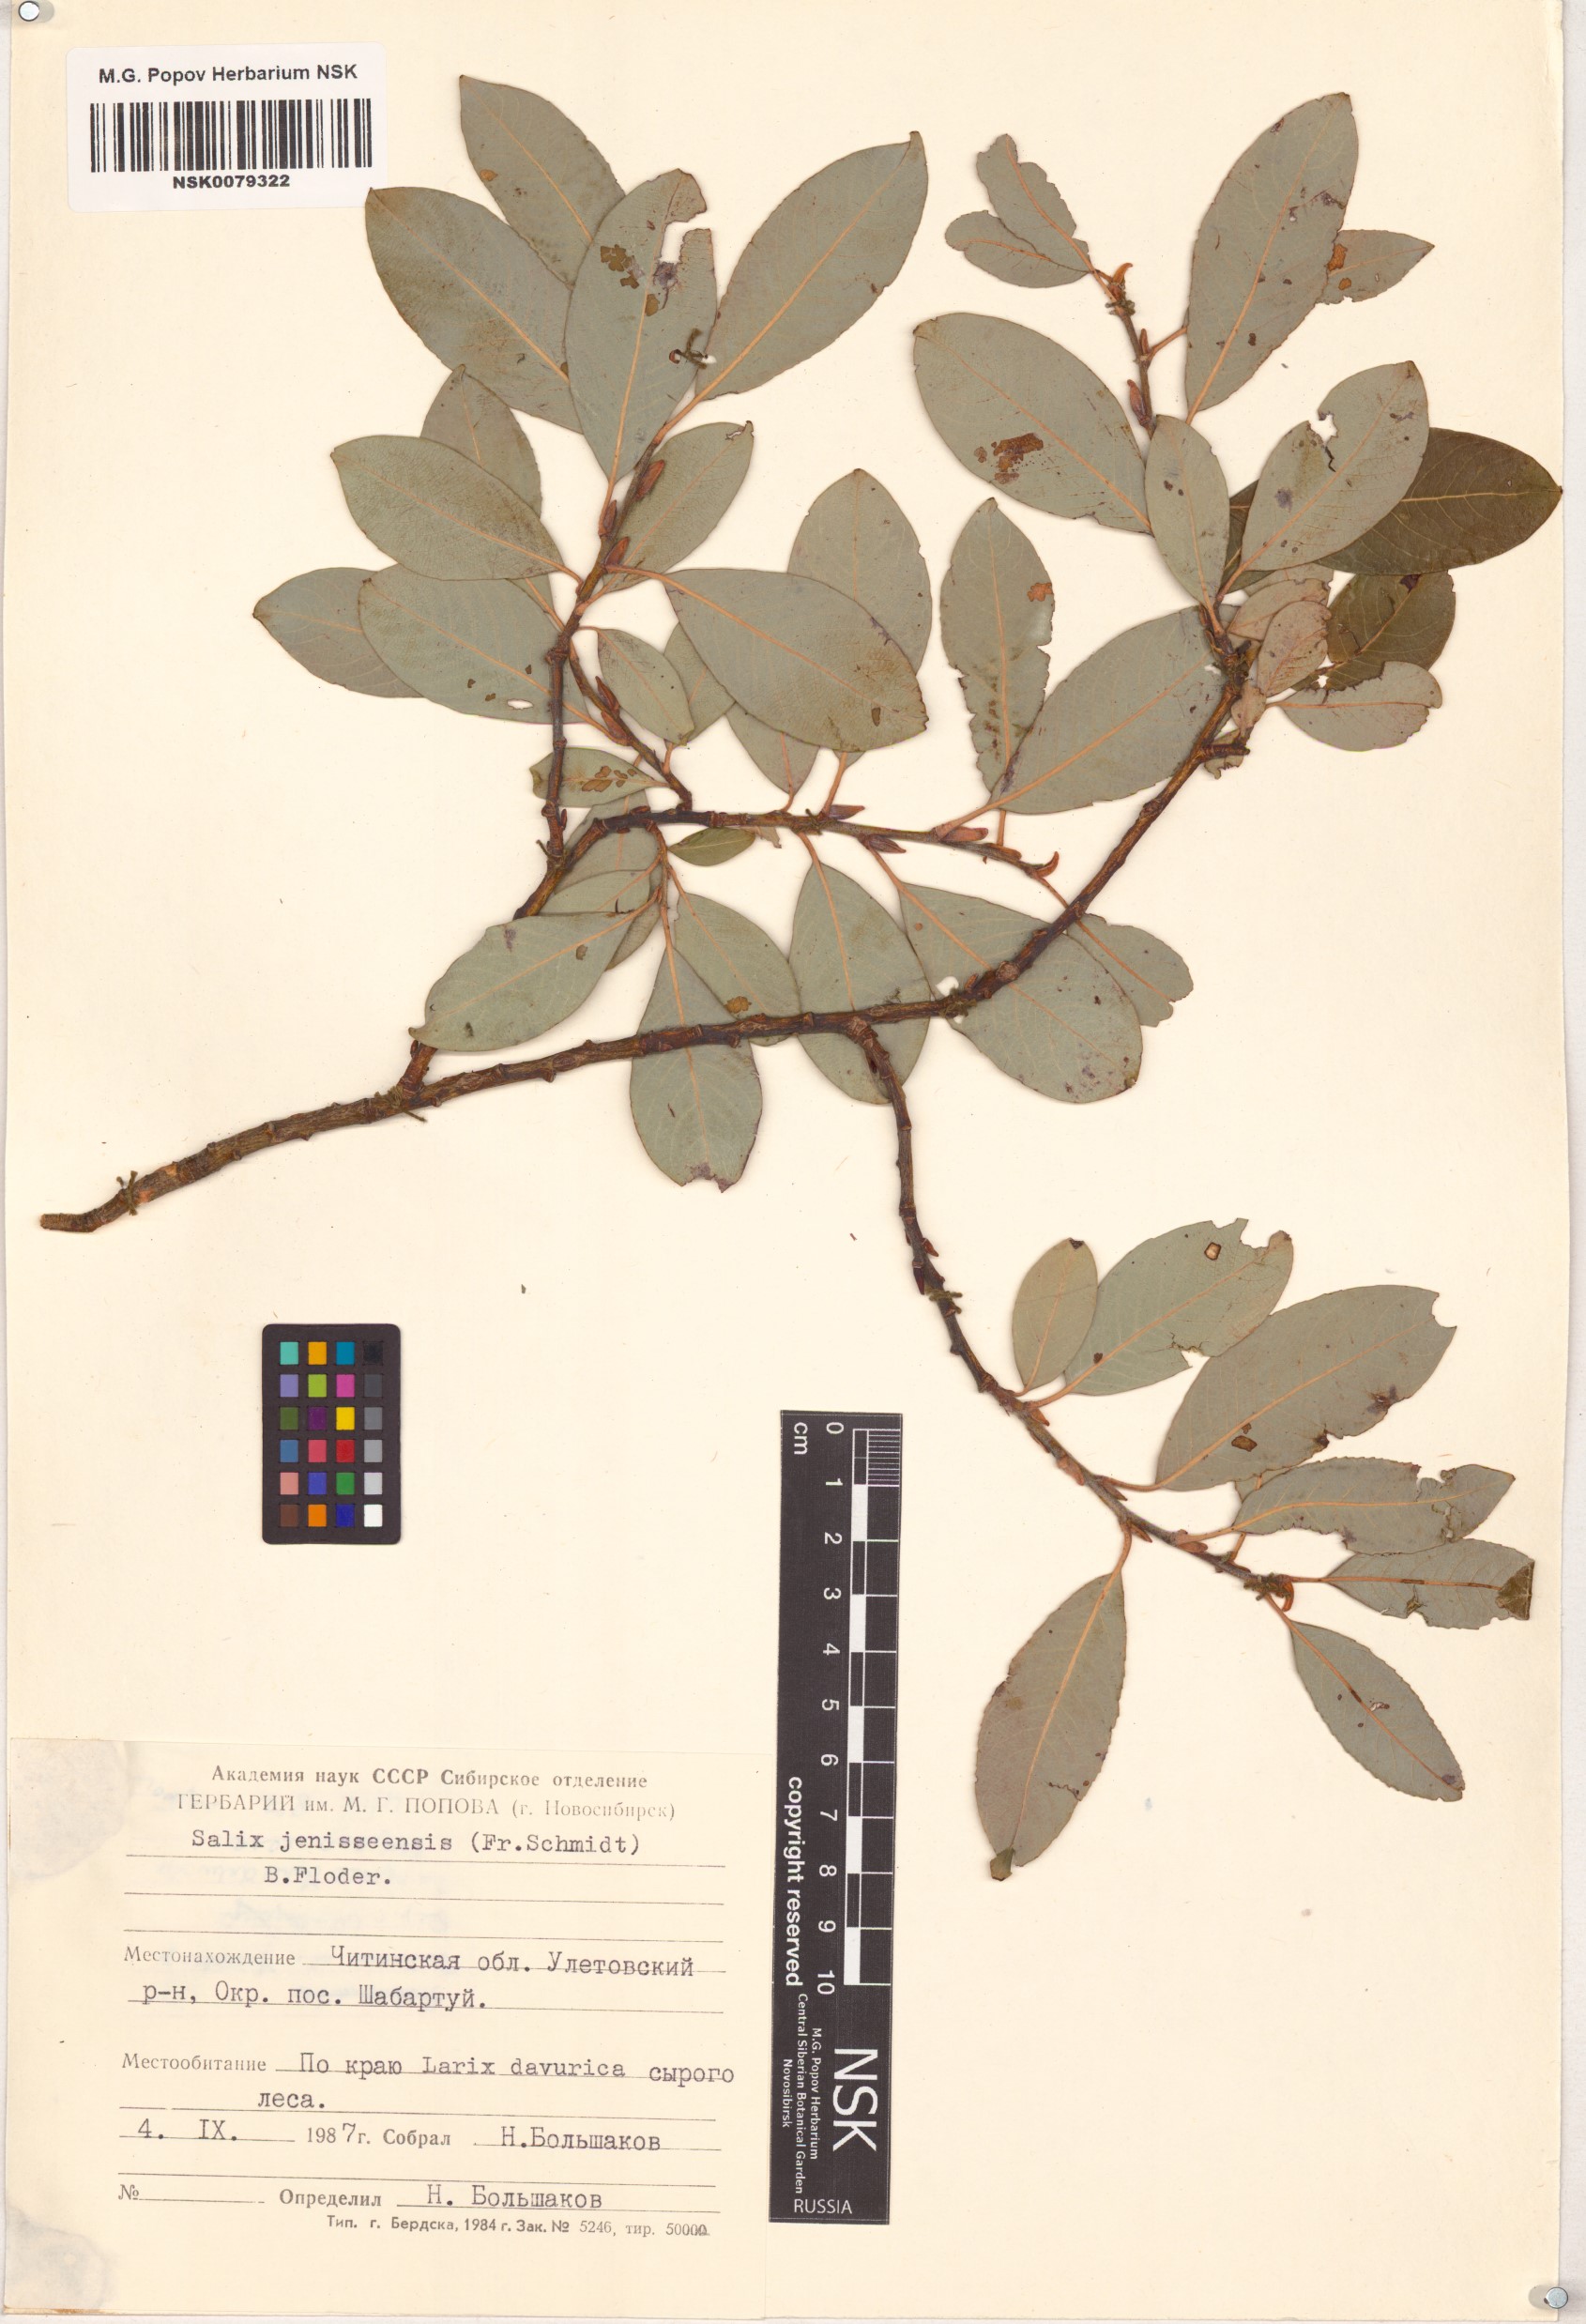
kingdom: Plantae
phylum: Tracheophyta
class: Magnoliopsida
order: Malpighiales
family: Salicaceae
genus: Salix
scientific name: Salix jenisseensis
